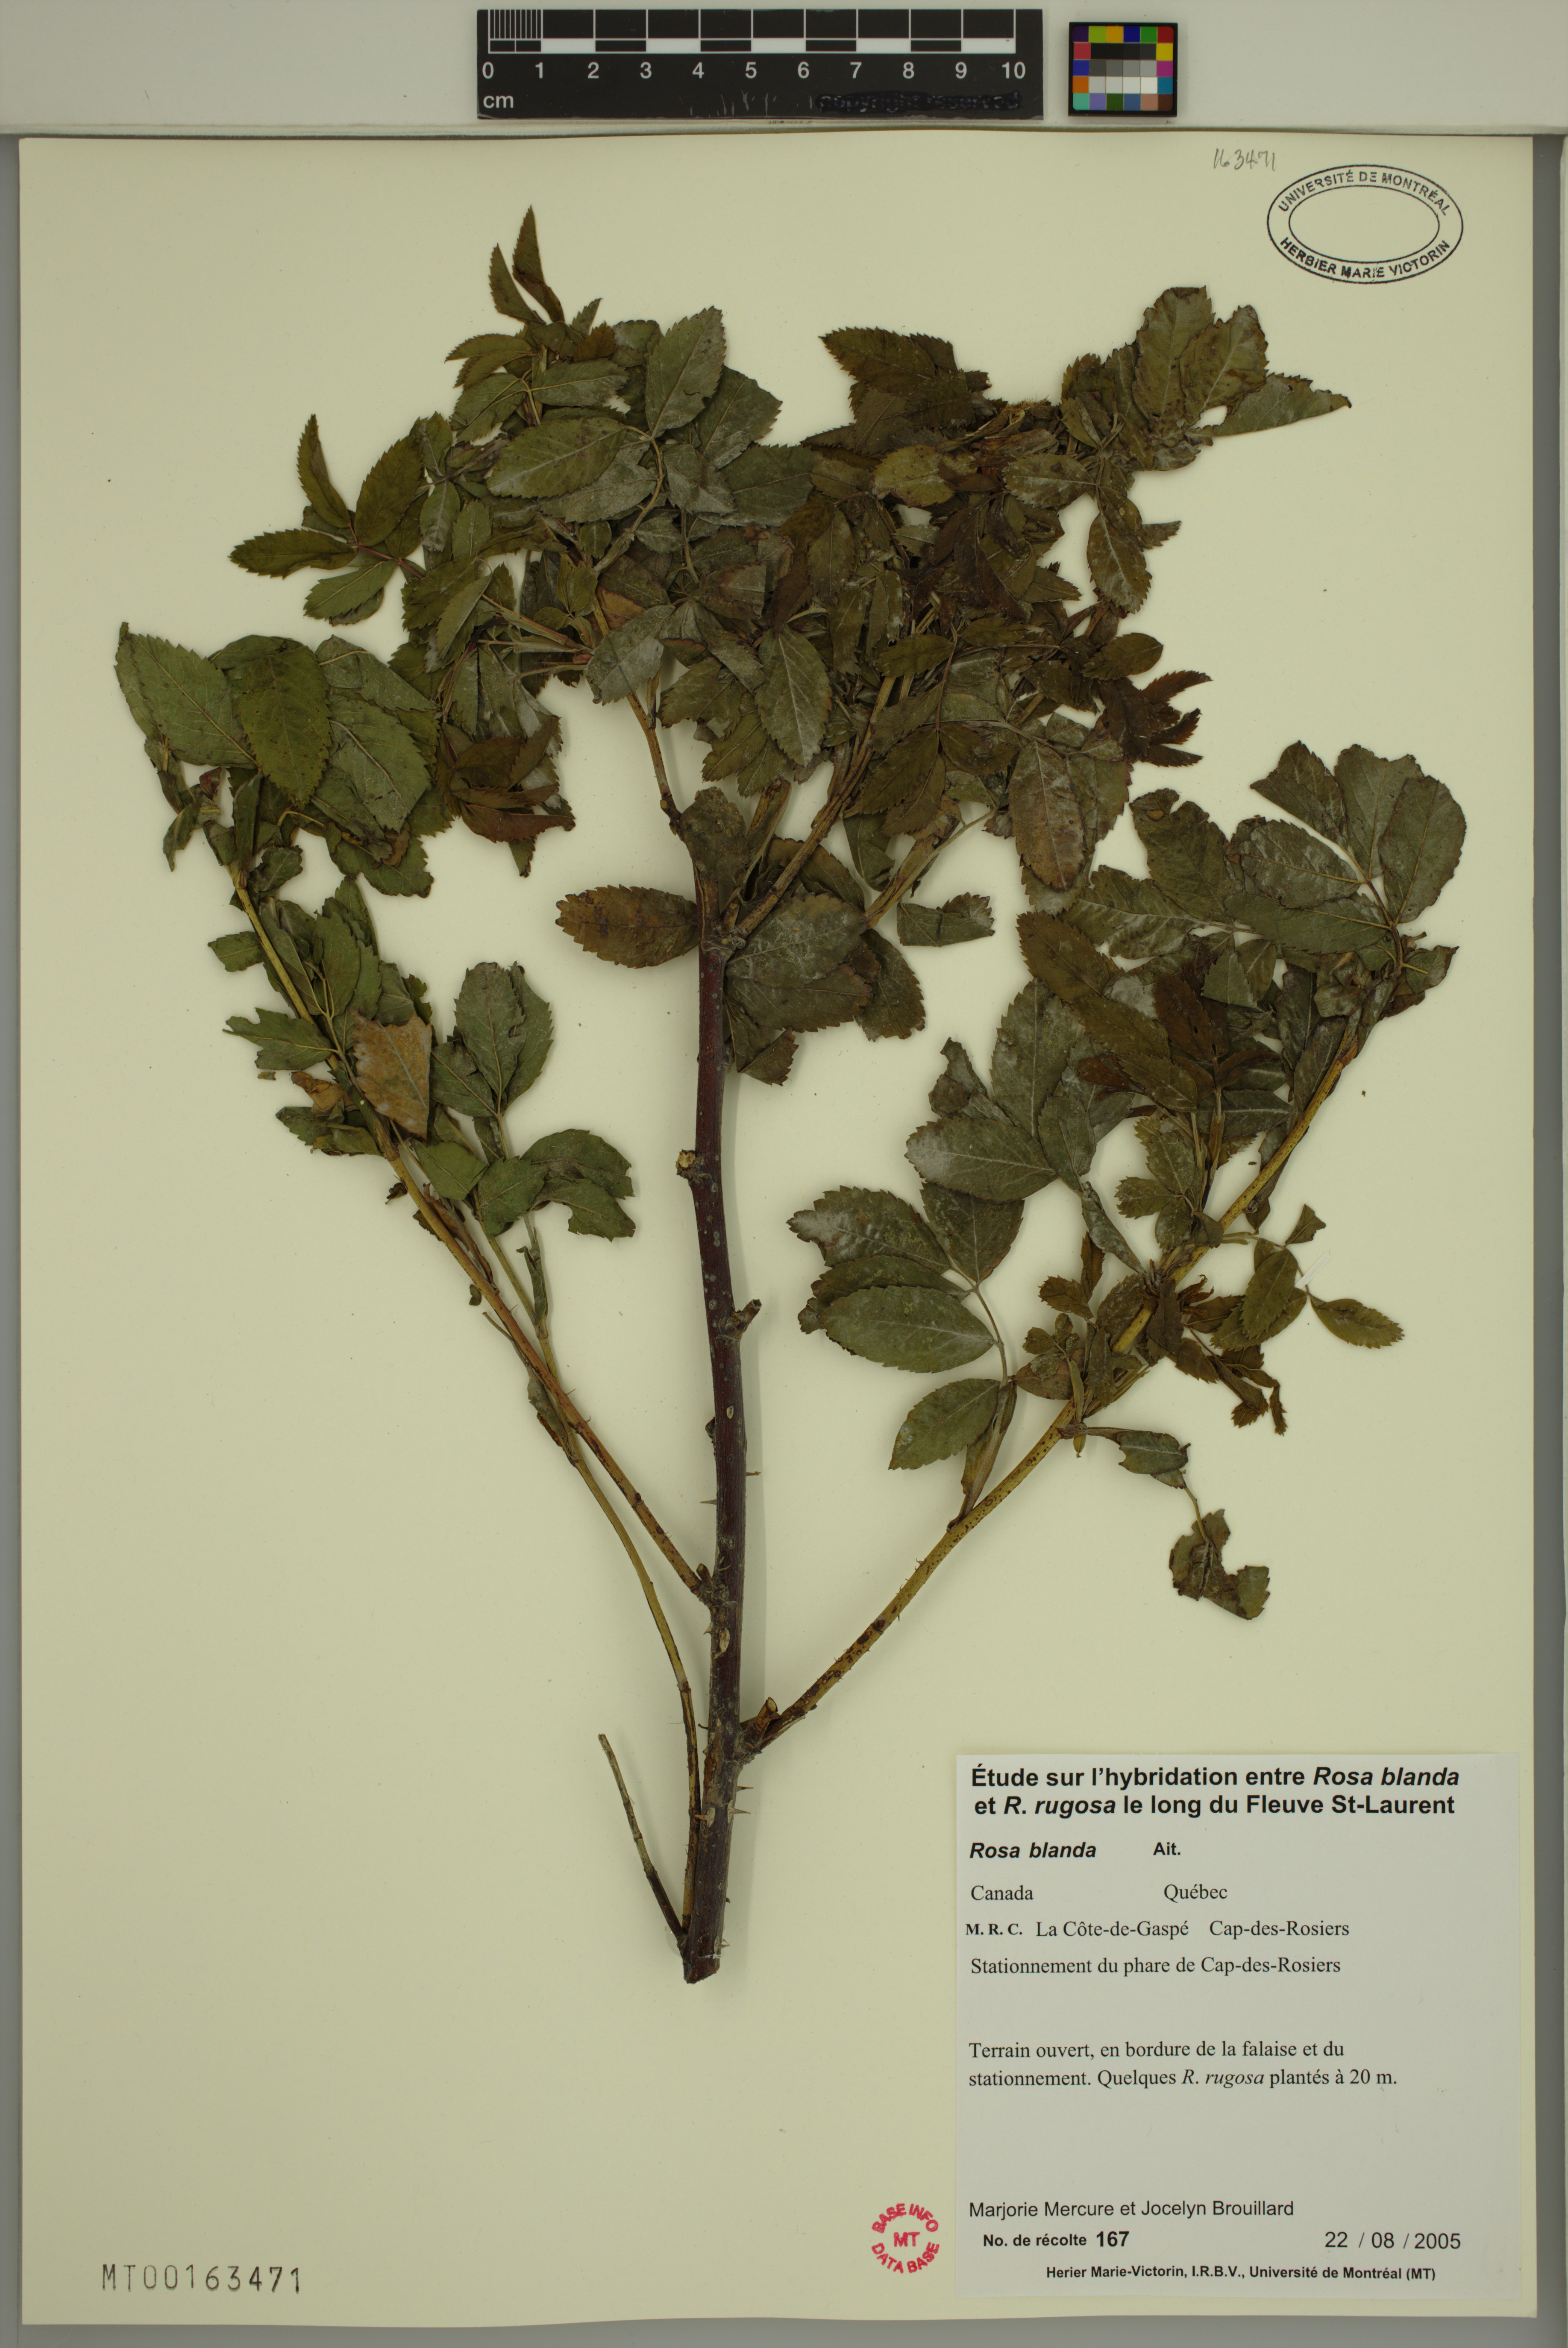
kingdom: Plantae
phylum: Tracheophyta
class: Magnoliopsida
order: Rosales
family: Rosaceae
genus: Rosa
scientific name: Rosa blanda
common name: Smooth rose
